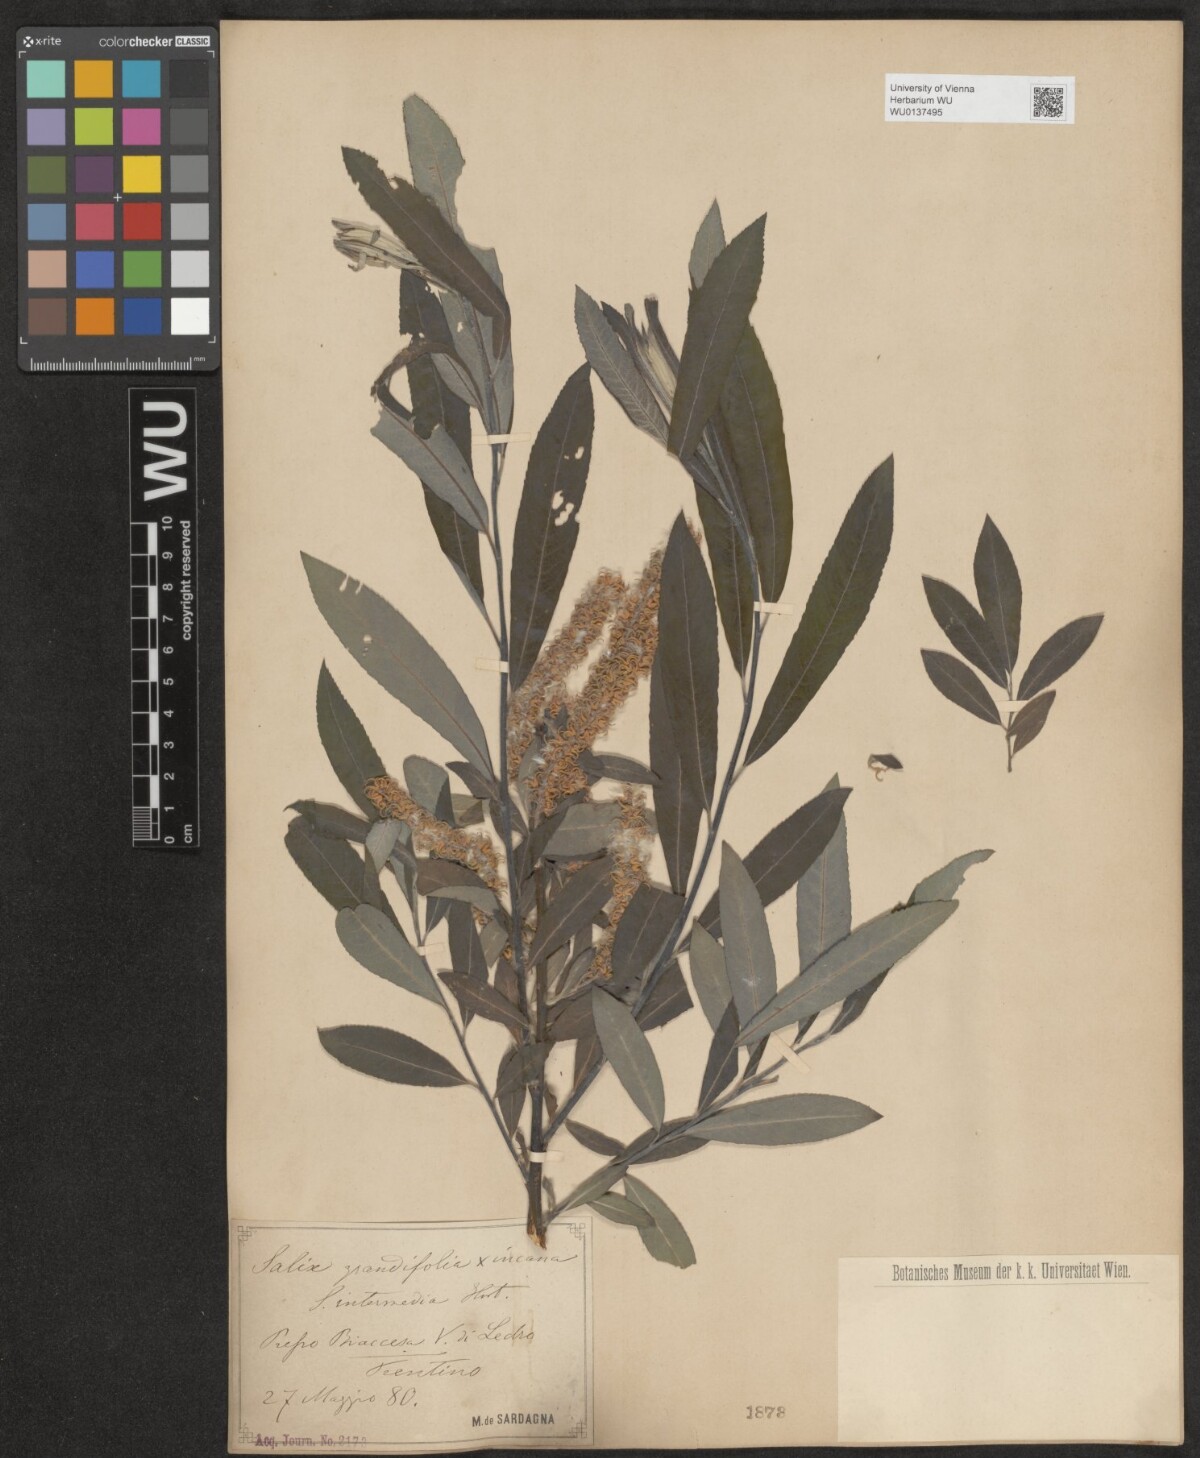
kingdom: Plantae
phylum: Tracheophyta
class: Magnoliopsida
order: Malpighiales
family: Salicaceae
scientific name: Salicaceae
